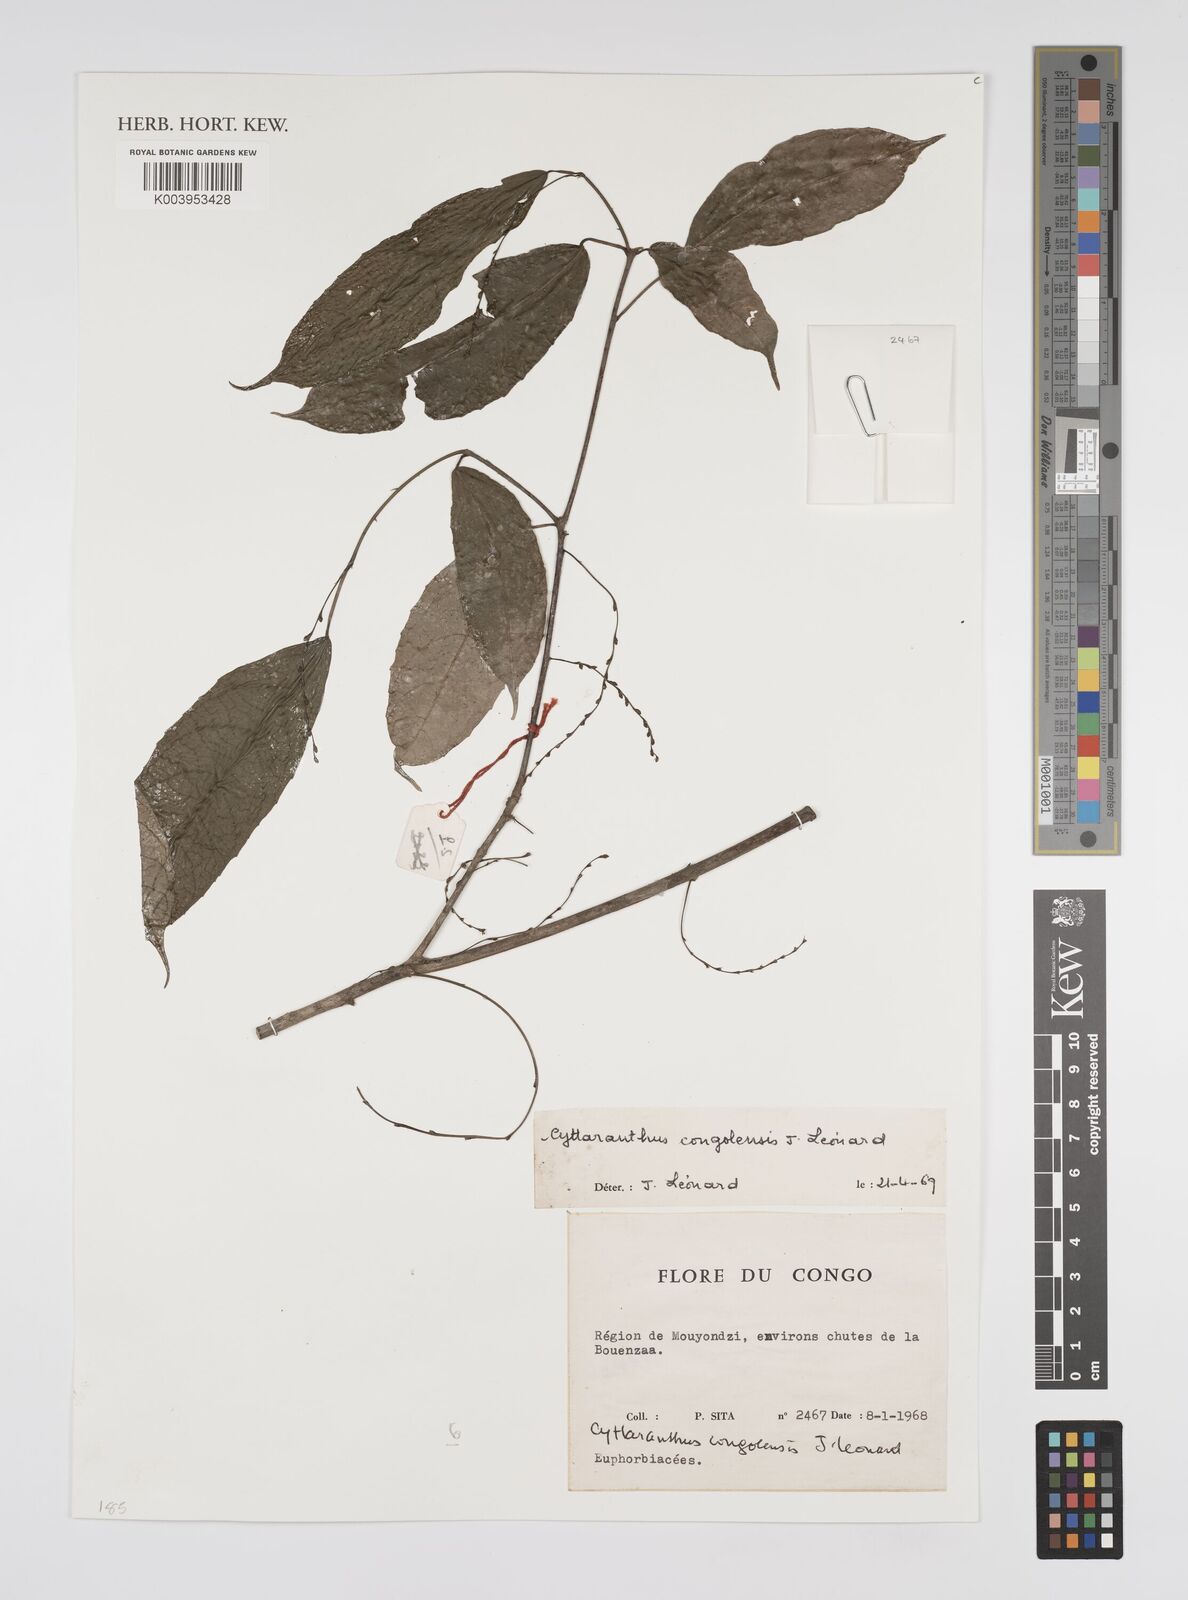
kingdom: Plantae
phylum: Tracheophyta
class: Magnoliopsida
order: Malpighiales
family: Euphorbiaceae
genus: Cyttaranthus
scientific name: Cyttaranthus congolensis
